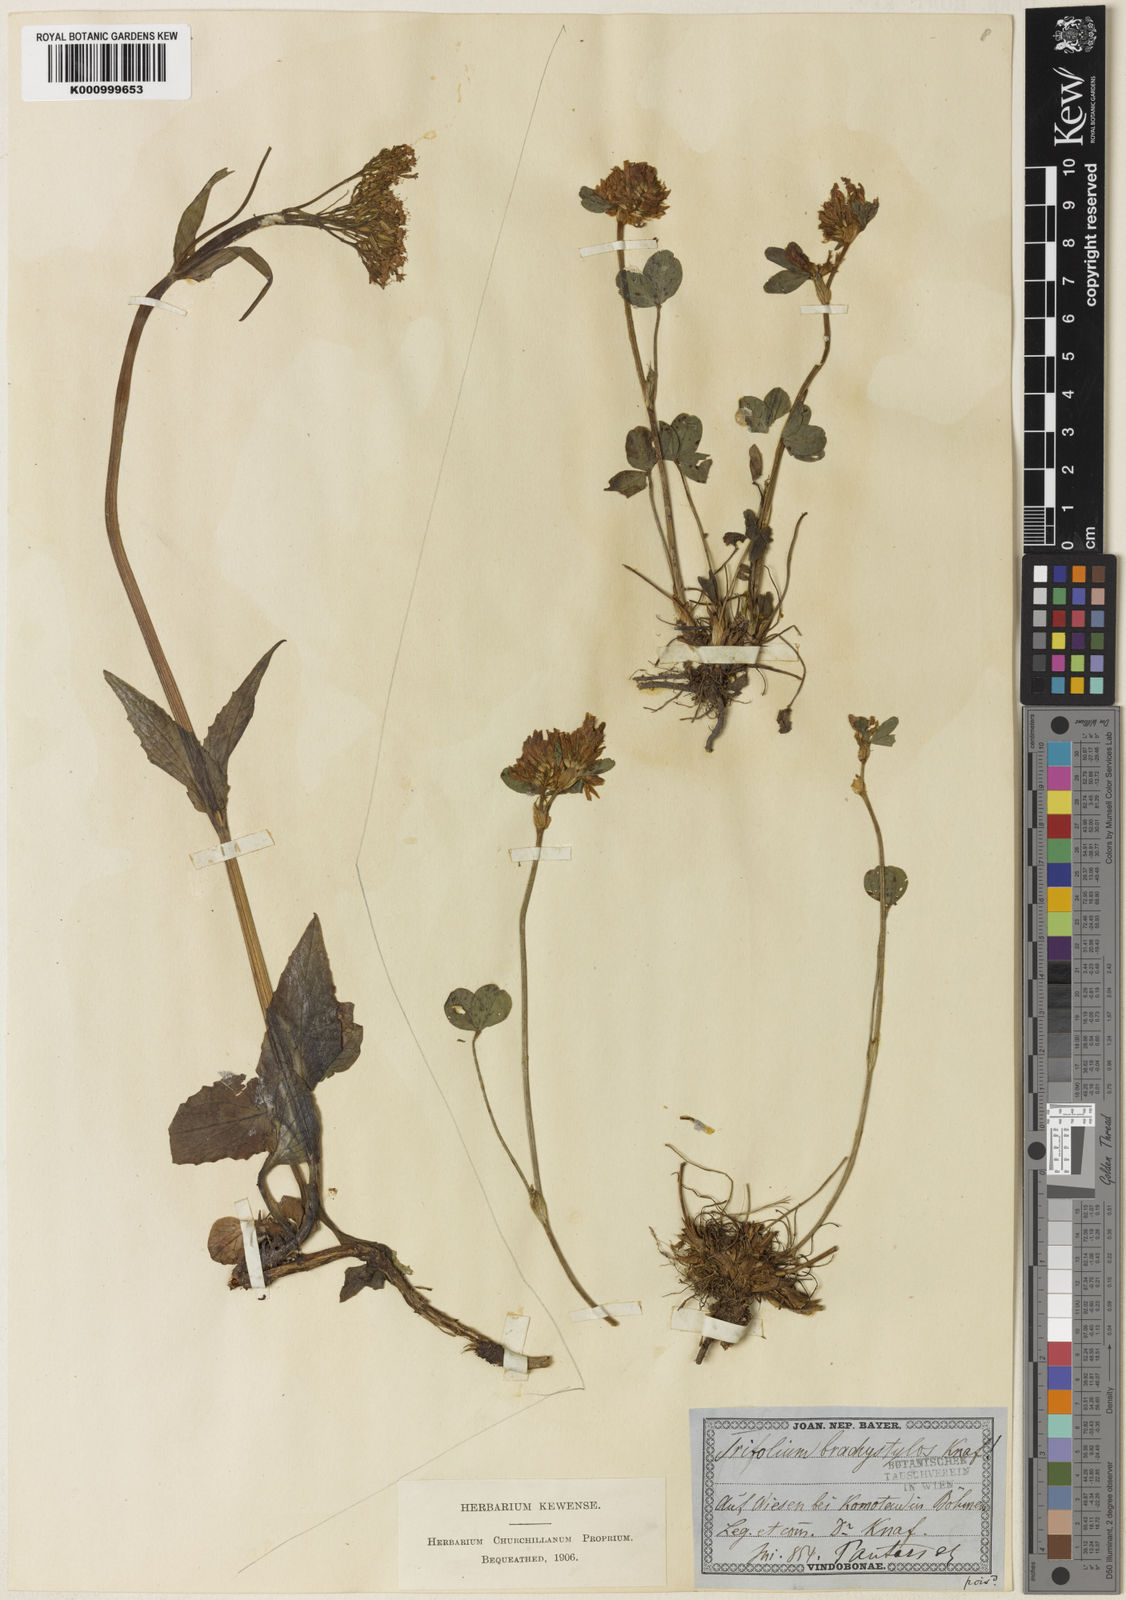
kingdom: Plantae
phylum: Tracheophyta
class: Magnoliopsida
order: Fabales
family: Fabaceae
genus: Trifolium
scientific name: Trifolium pratense
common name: Red clover
